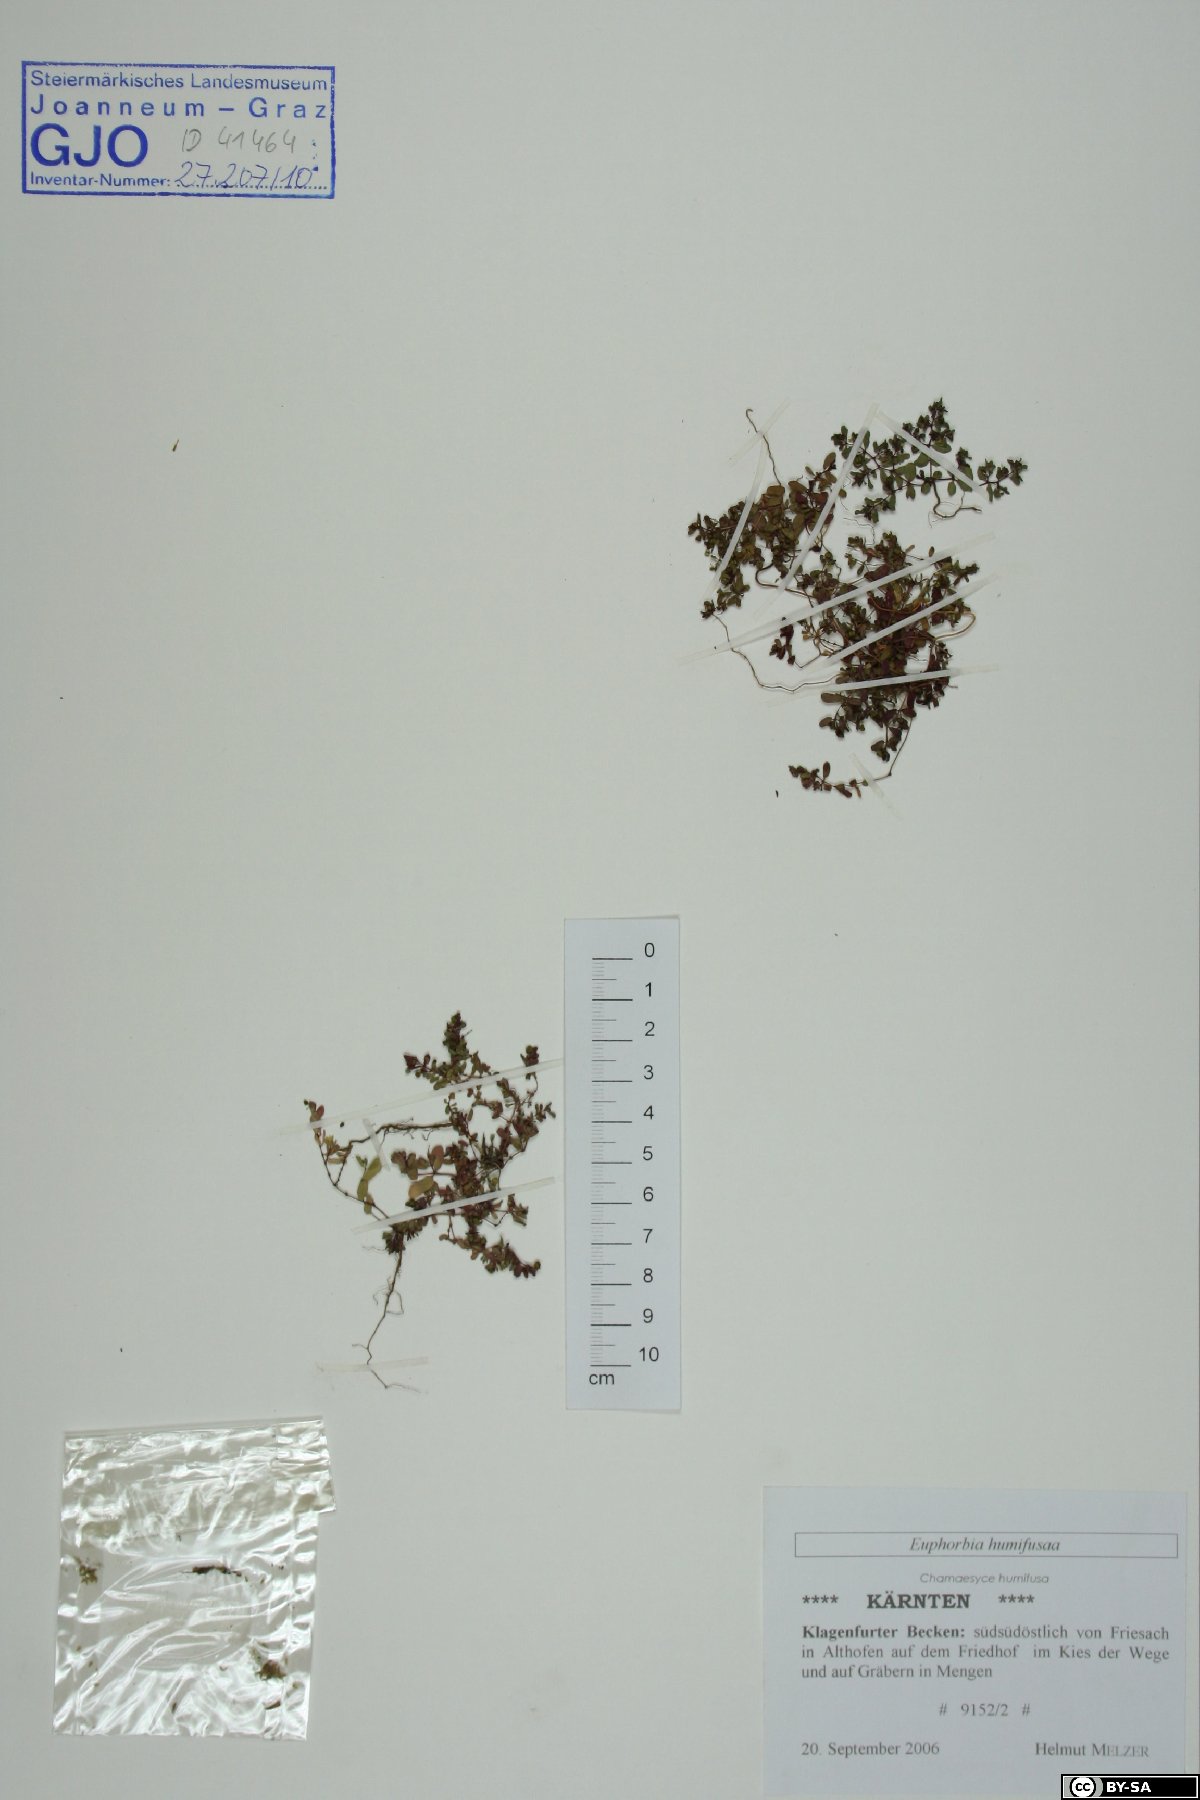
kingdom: Plantae
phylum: Tracheophyta
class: Magnoliopsida
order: Malpighiales
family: Euphorbiaceae
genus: Euphorbia
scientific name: Euphorbia humifusa
